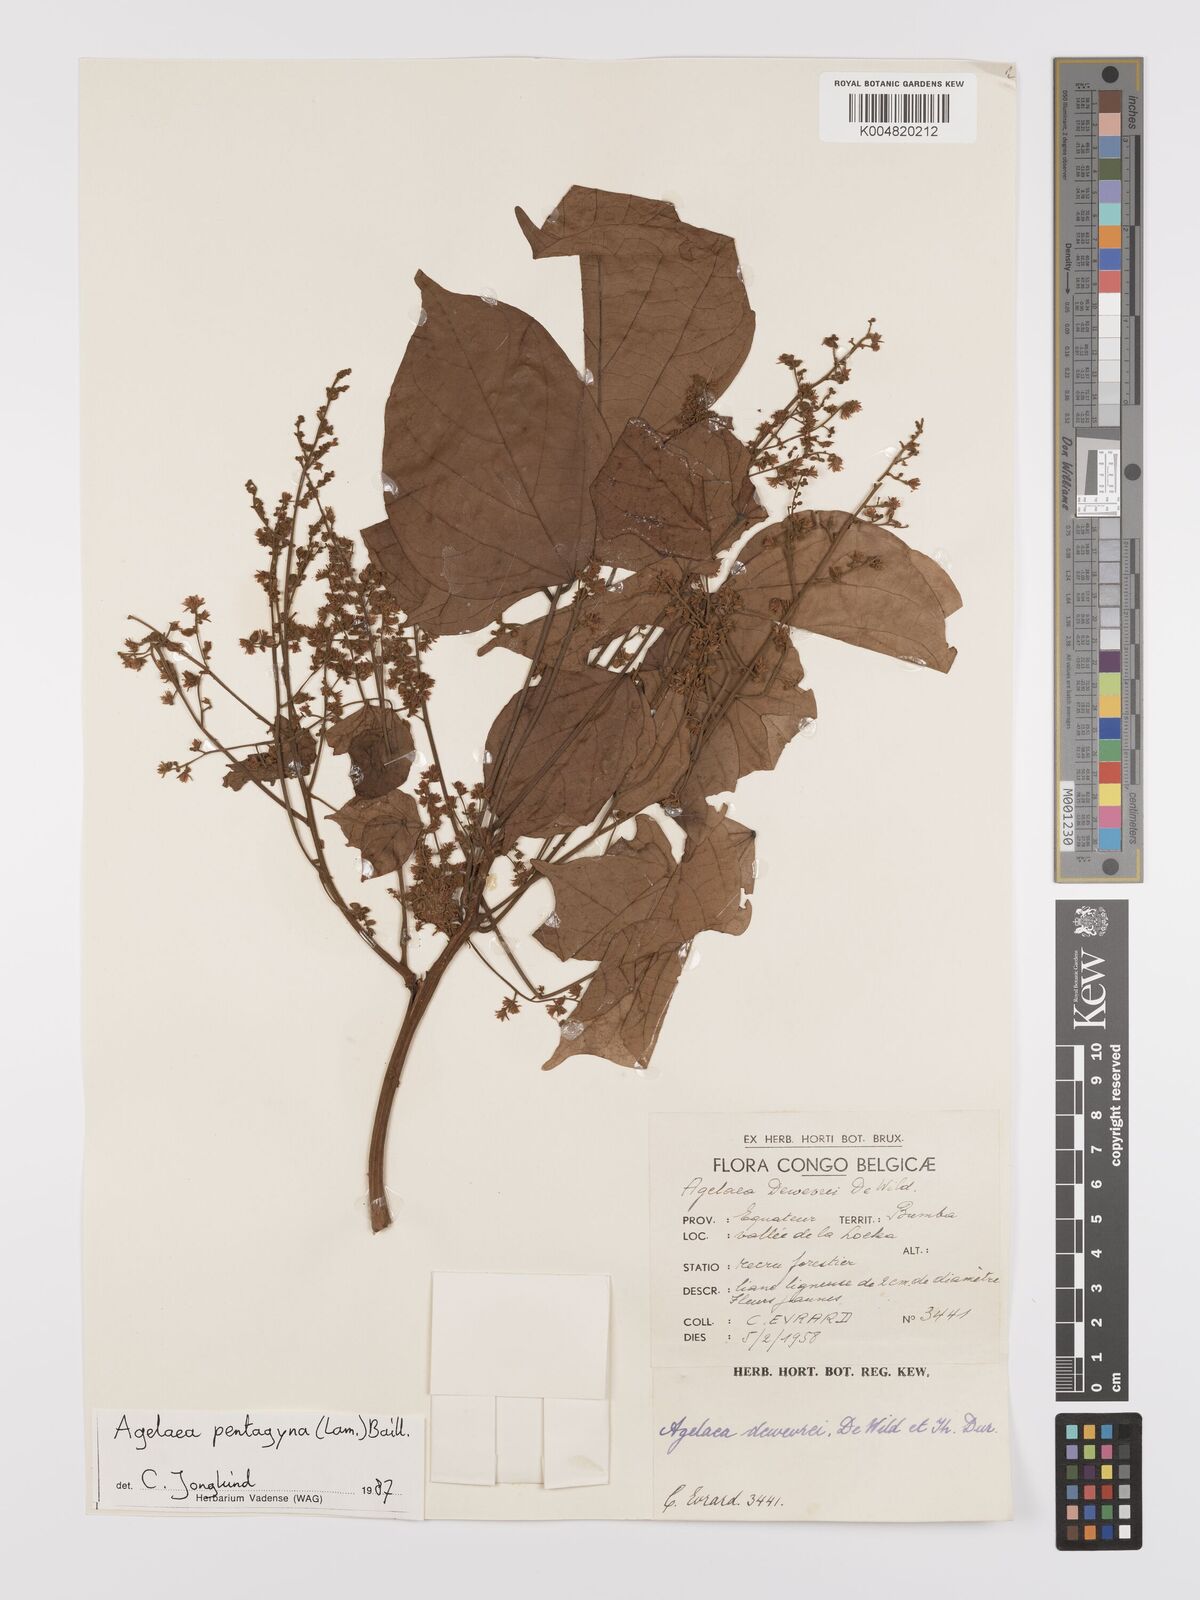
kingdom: Plantae
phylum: Tracheophyta
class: Magnoliopsida
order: Oxalidales
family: Connaraceae
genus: Agelaea
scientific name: Agelaea pentagyna
